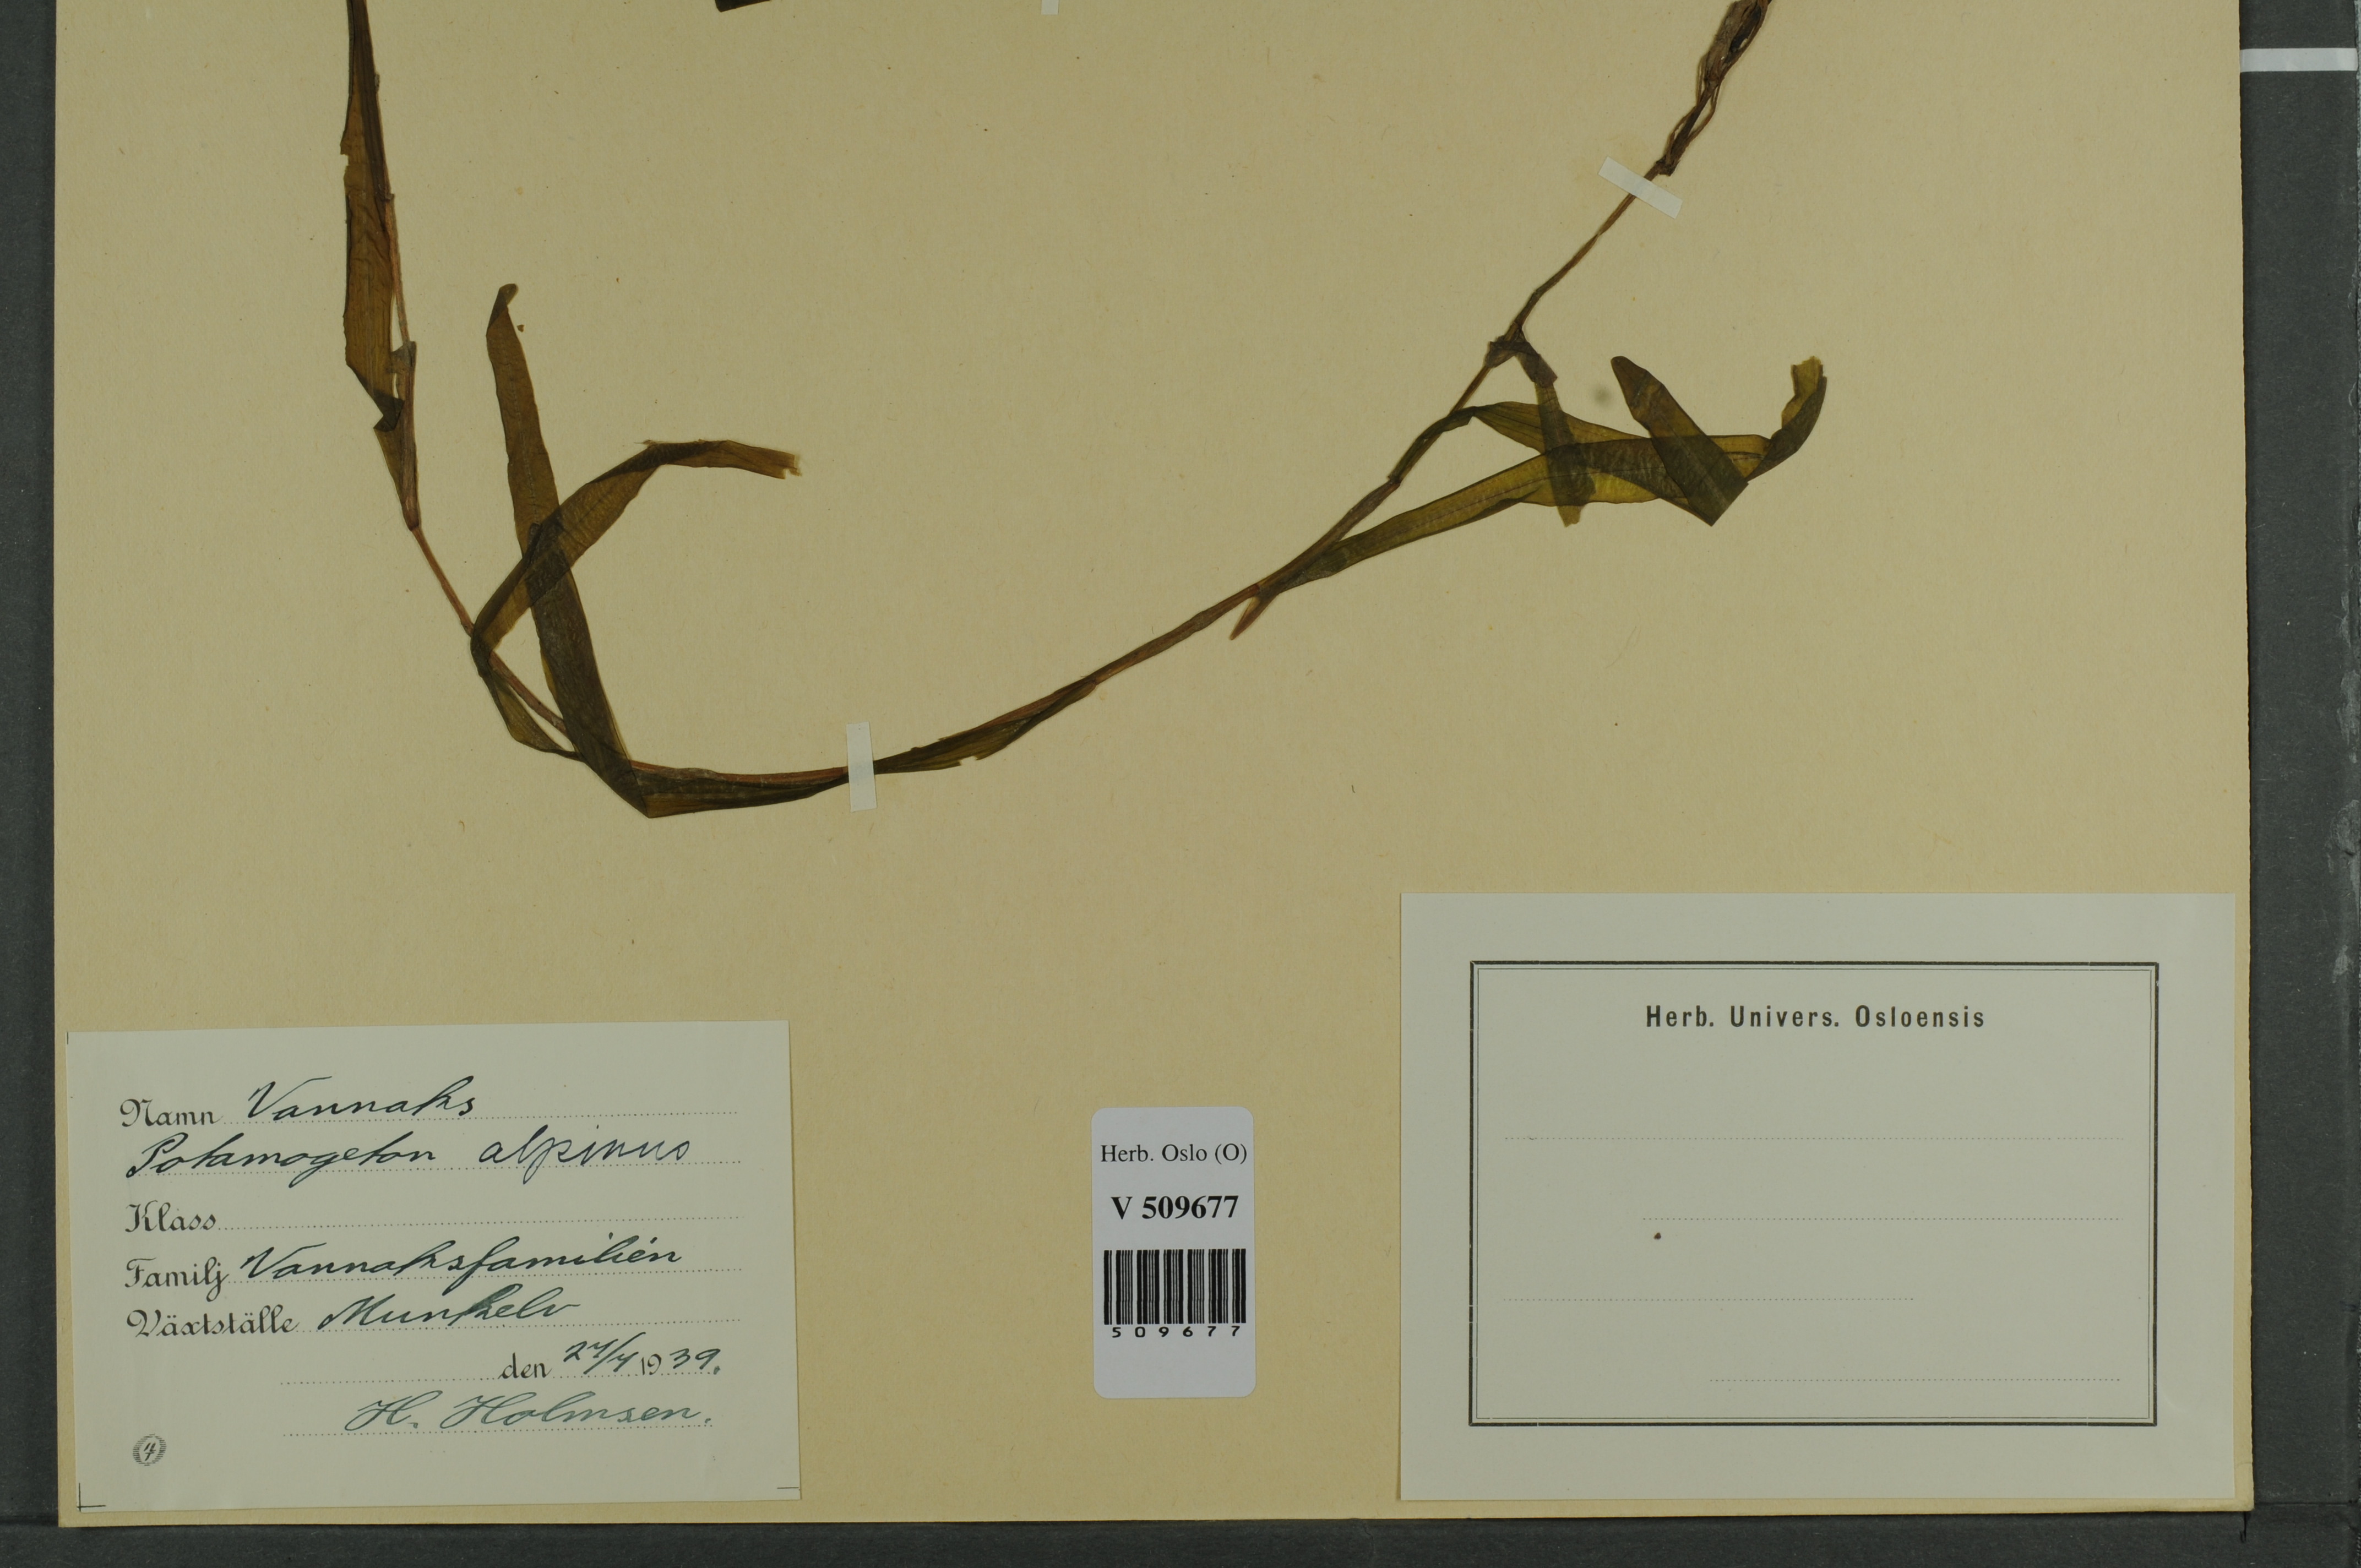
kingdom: Plantae
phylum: Tracheophyta
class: Liliopsida
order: Alismatales
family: Potamogetonaceae
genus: Potamogeton
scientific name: Potamogeton alpinus
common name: Red pondweed
